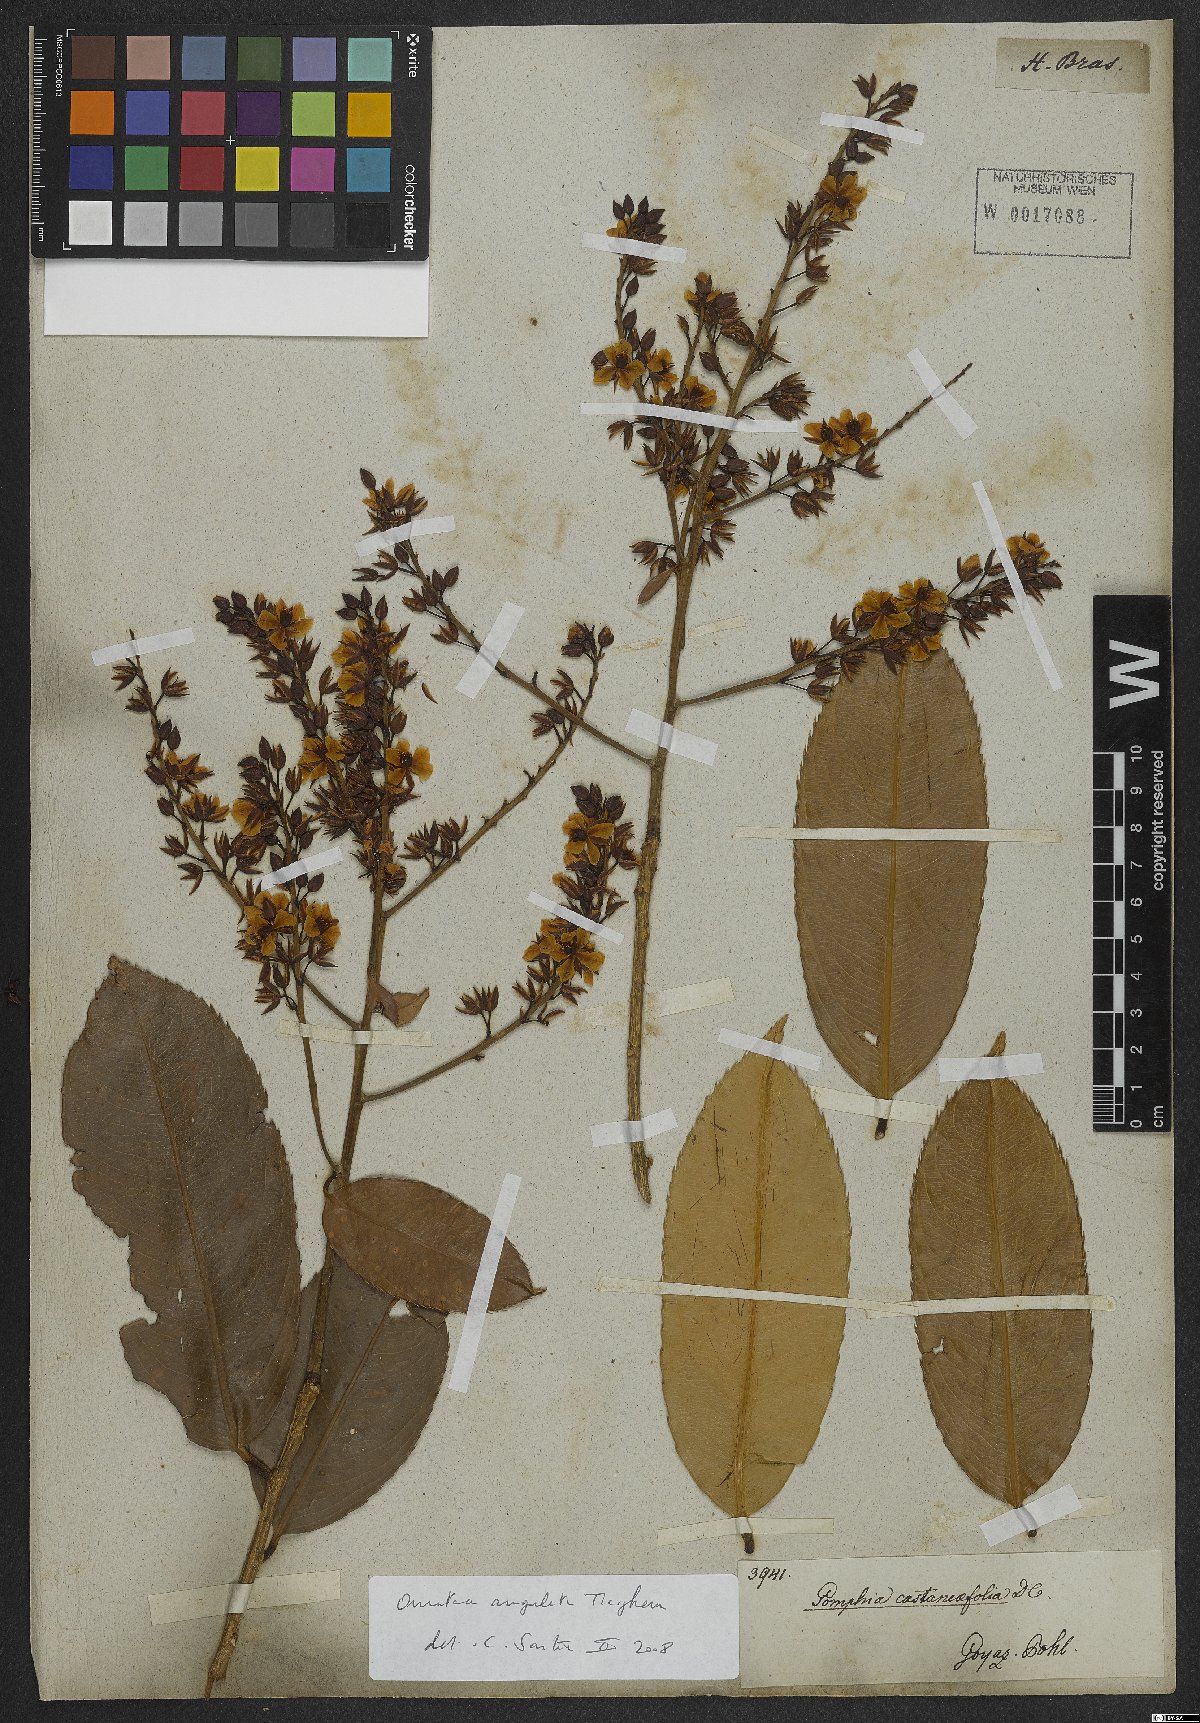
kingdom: Plantae
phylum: Tracheophyta
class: Magnoliopsida
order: Malpighiales
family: Ochnaceae
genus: Gomphia
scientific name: Gomphia obtusifolia
